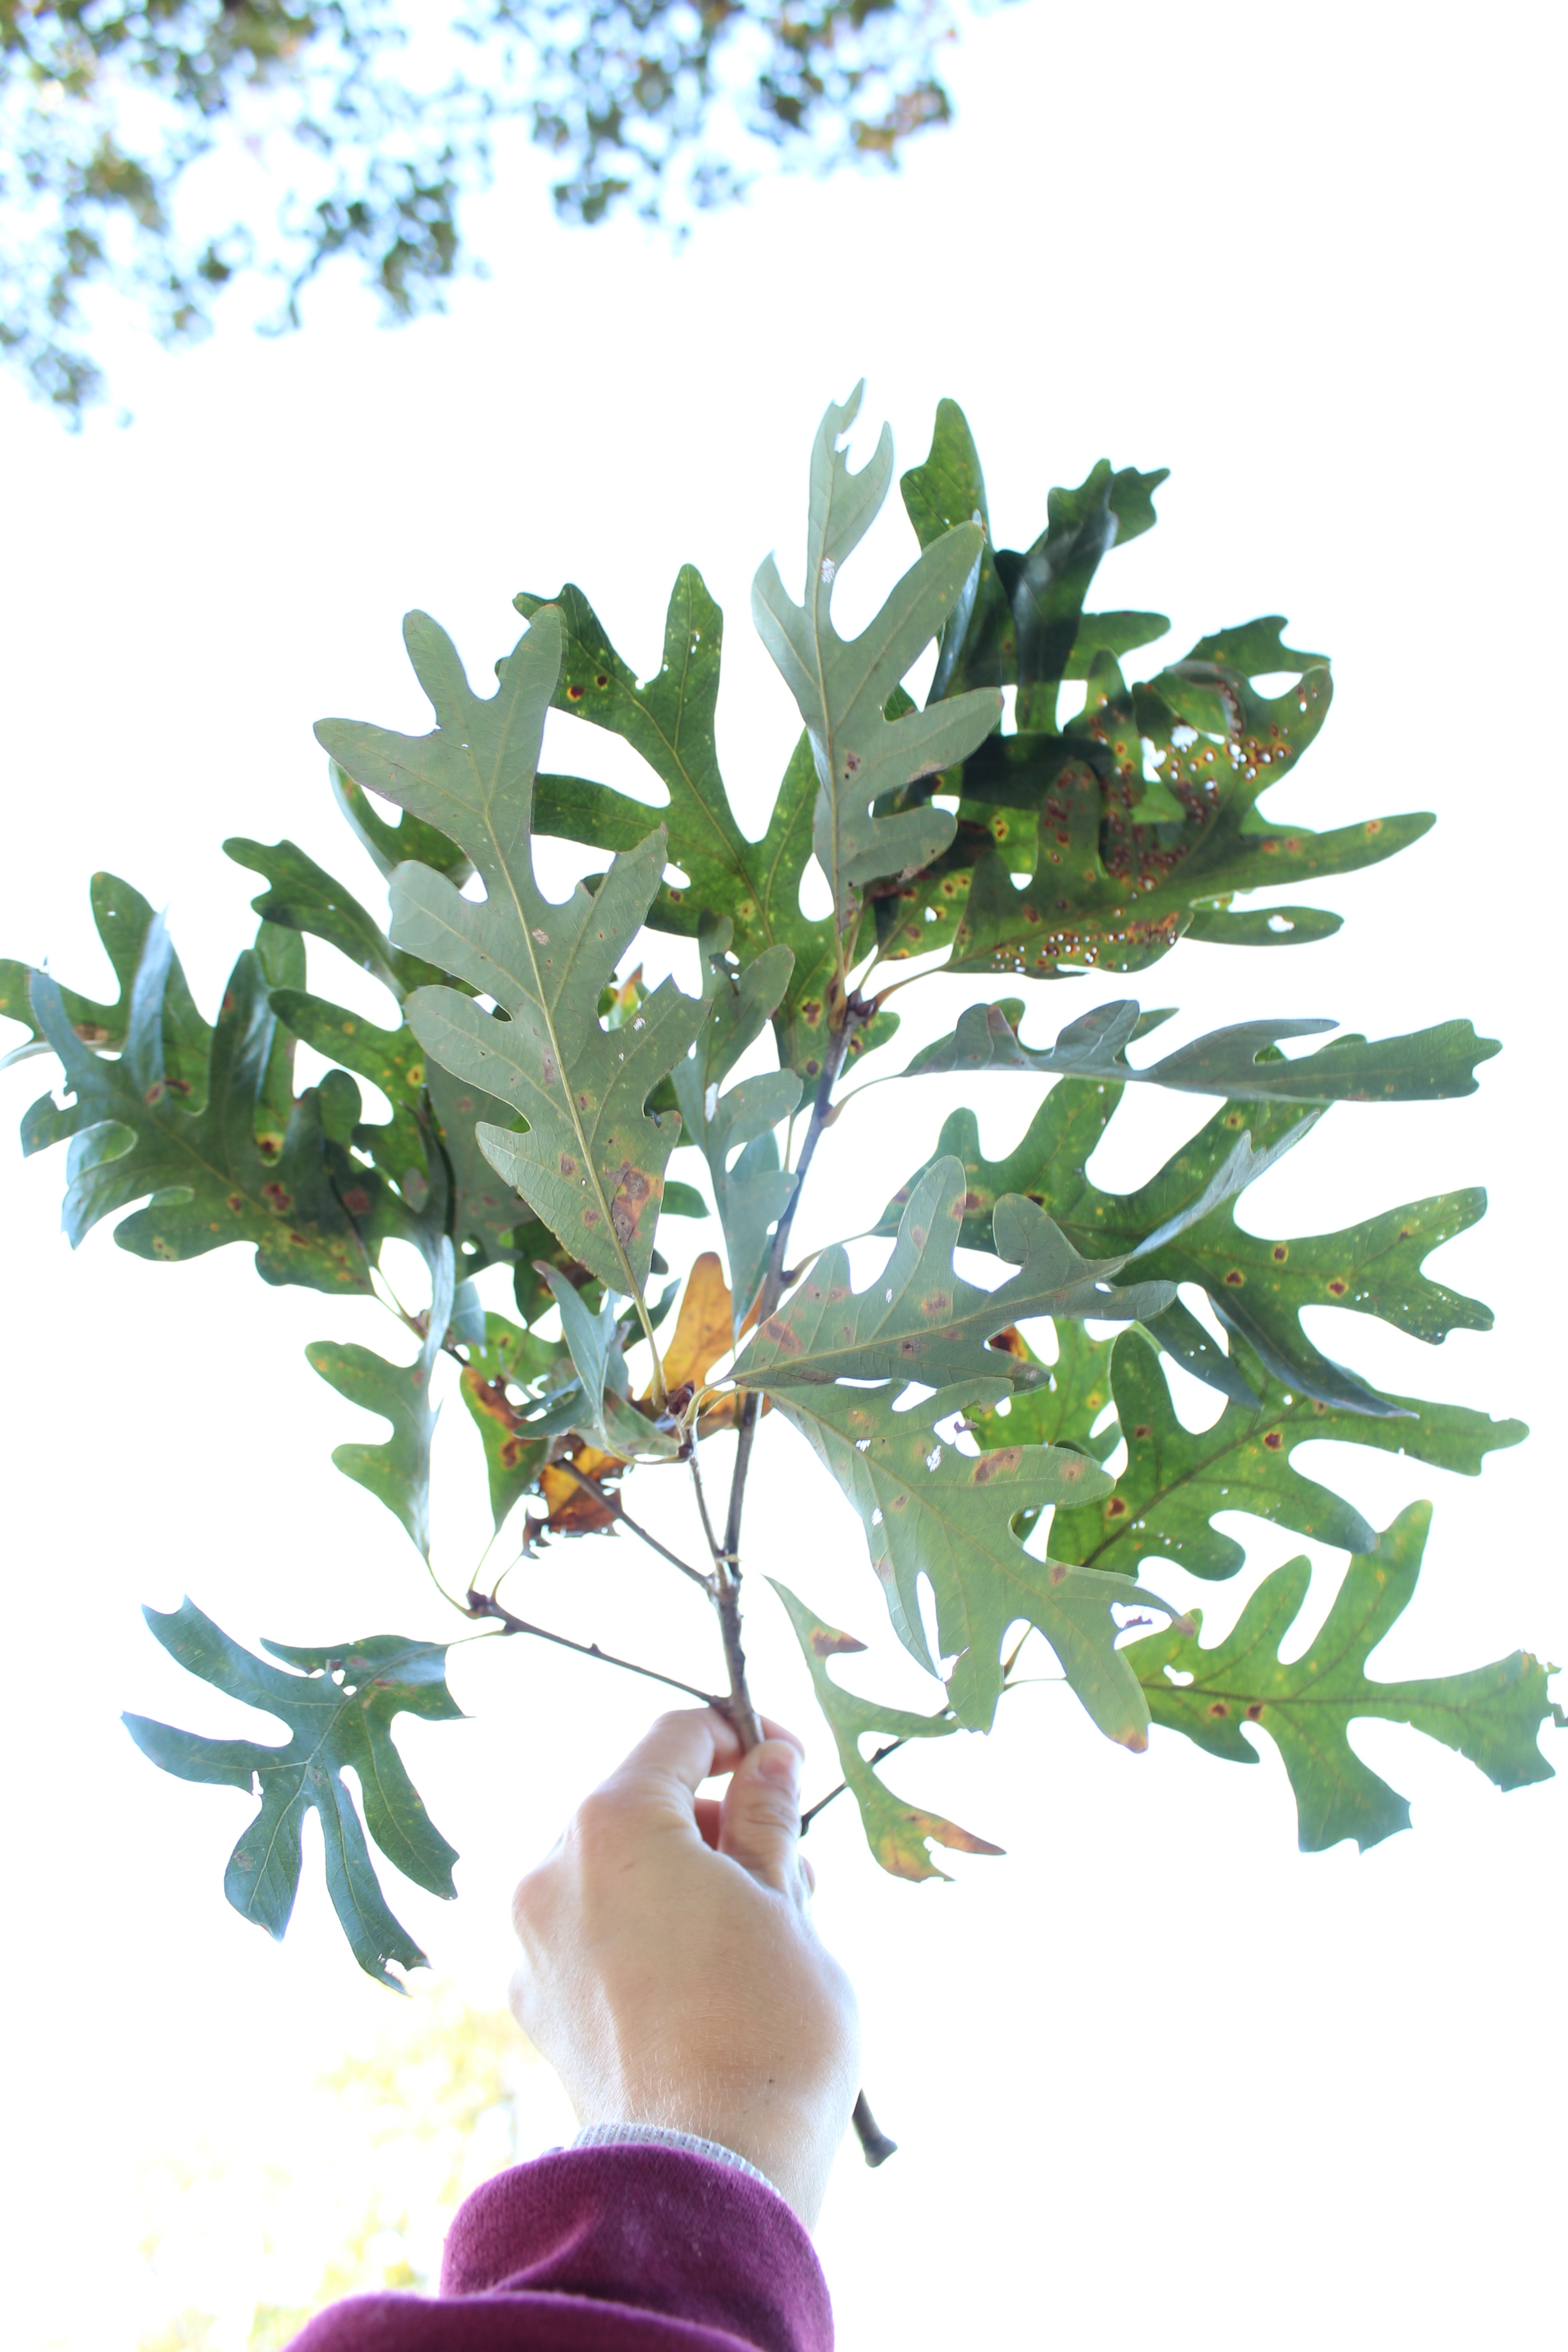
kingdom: Plantae
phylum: Tracheophyta
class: Magnoliopsida
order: Fagales
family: Fagaceae
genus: Quercus
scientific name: Quercus alba
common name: White oak
